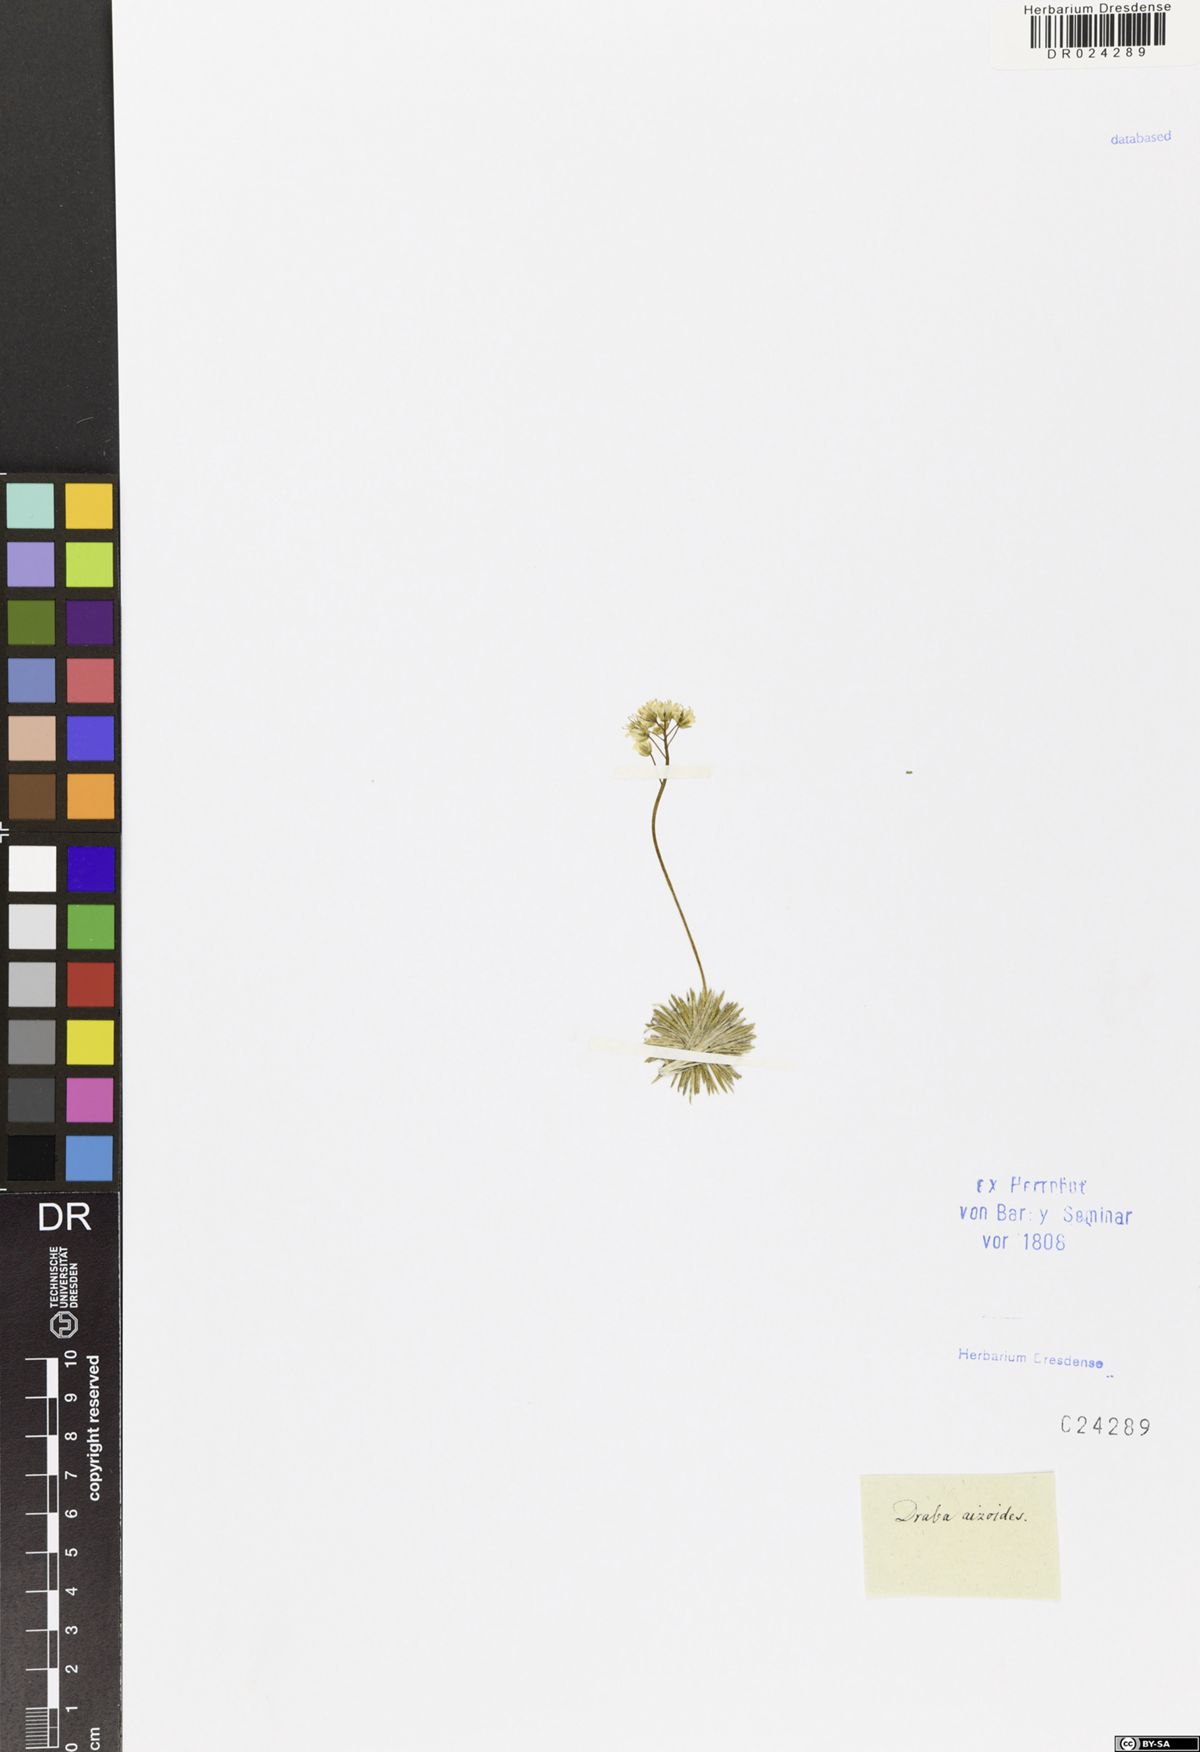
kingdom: Plantae
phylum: Tracheophyta
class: Magnoliopsida
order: Brassicales
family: Brassicaceae
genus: Draba
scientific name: Draba aizoides
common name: Yellow whitlowgrass
